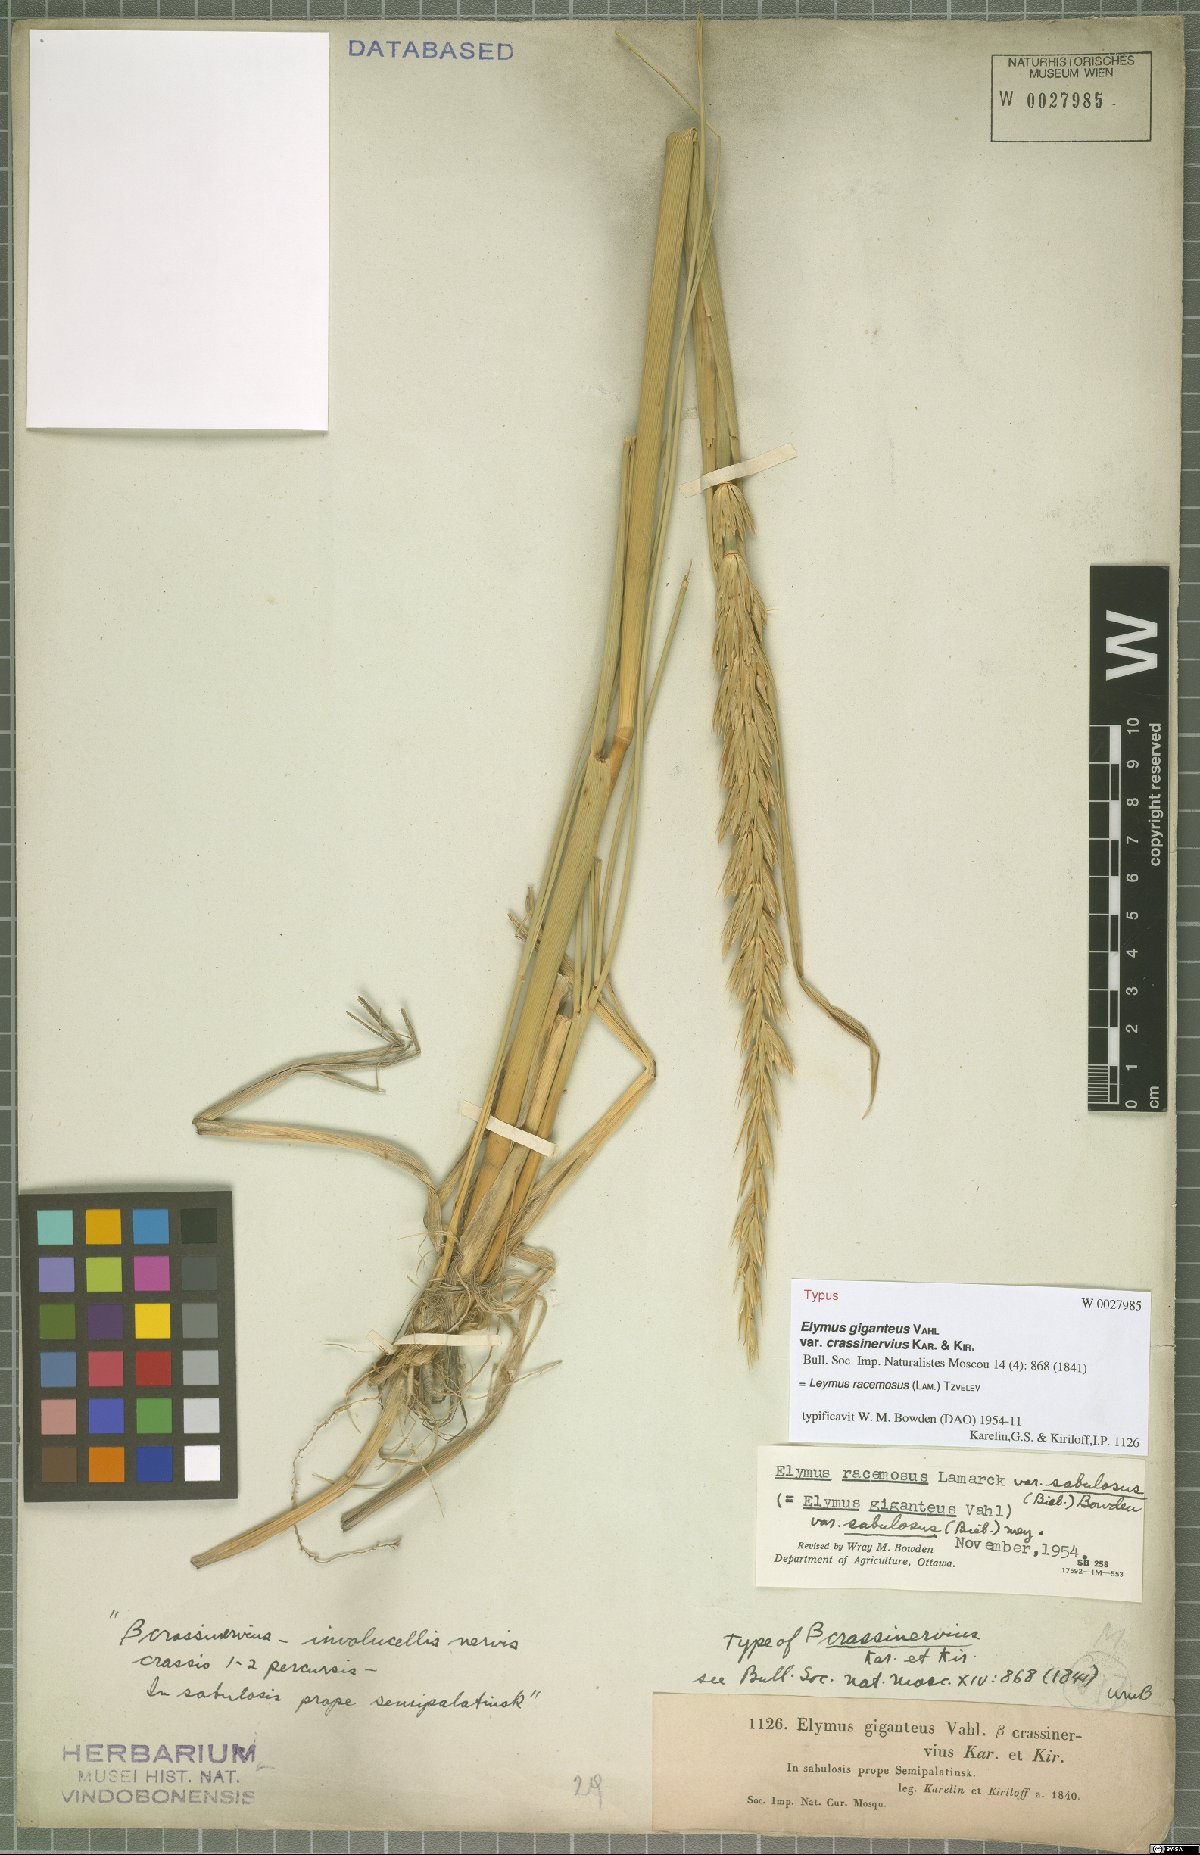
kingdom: Plantae
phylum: Tracheophyta
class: Liliopsida
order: Poales
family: Poaceae
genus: Leymus
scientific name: Leymus racemosus
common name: Mammoth wildrye
